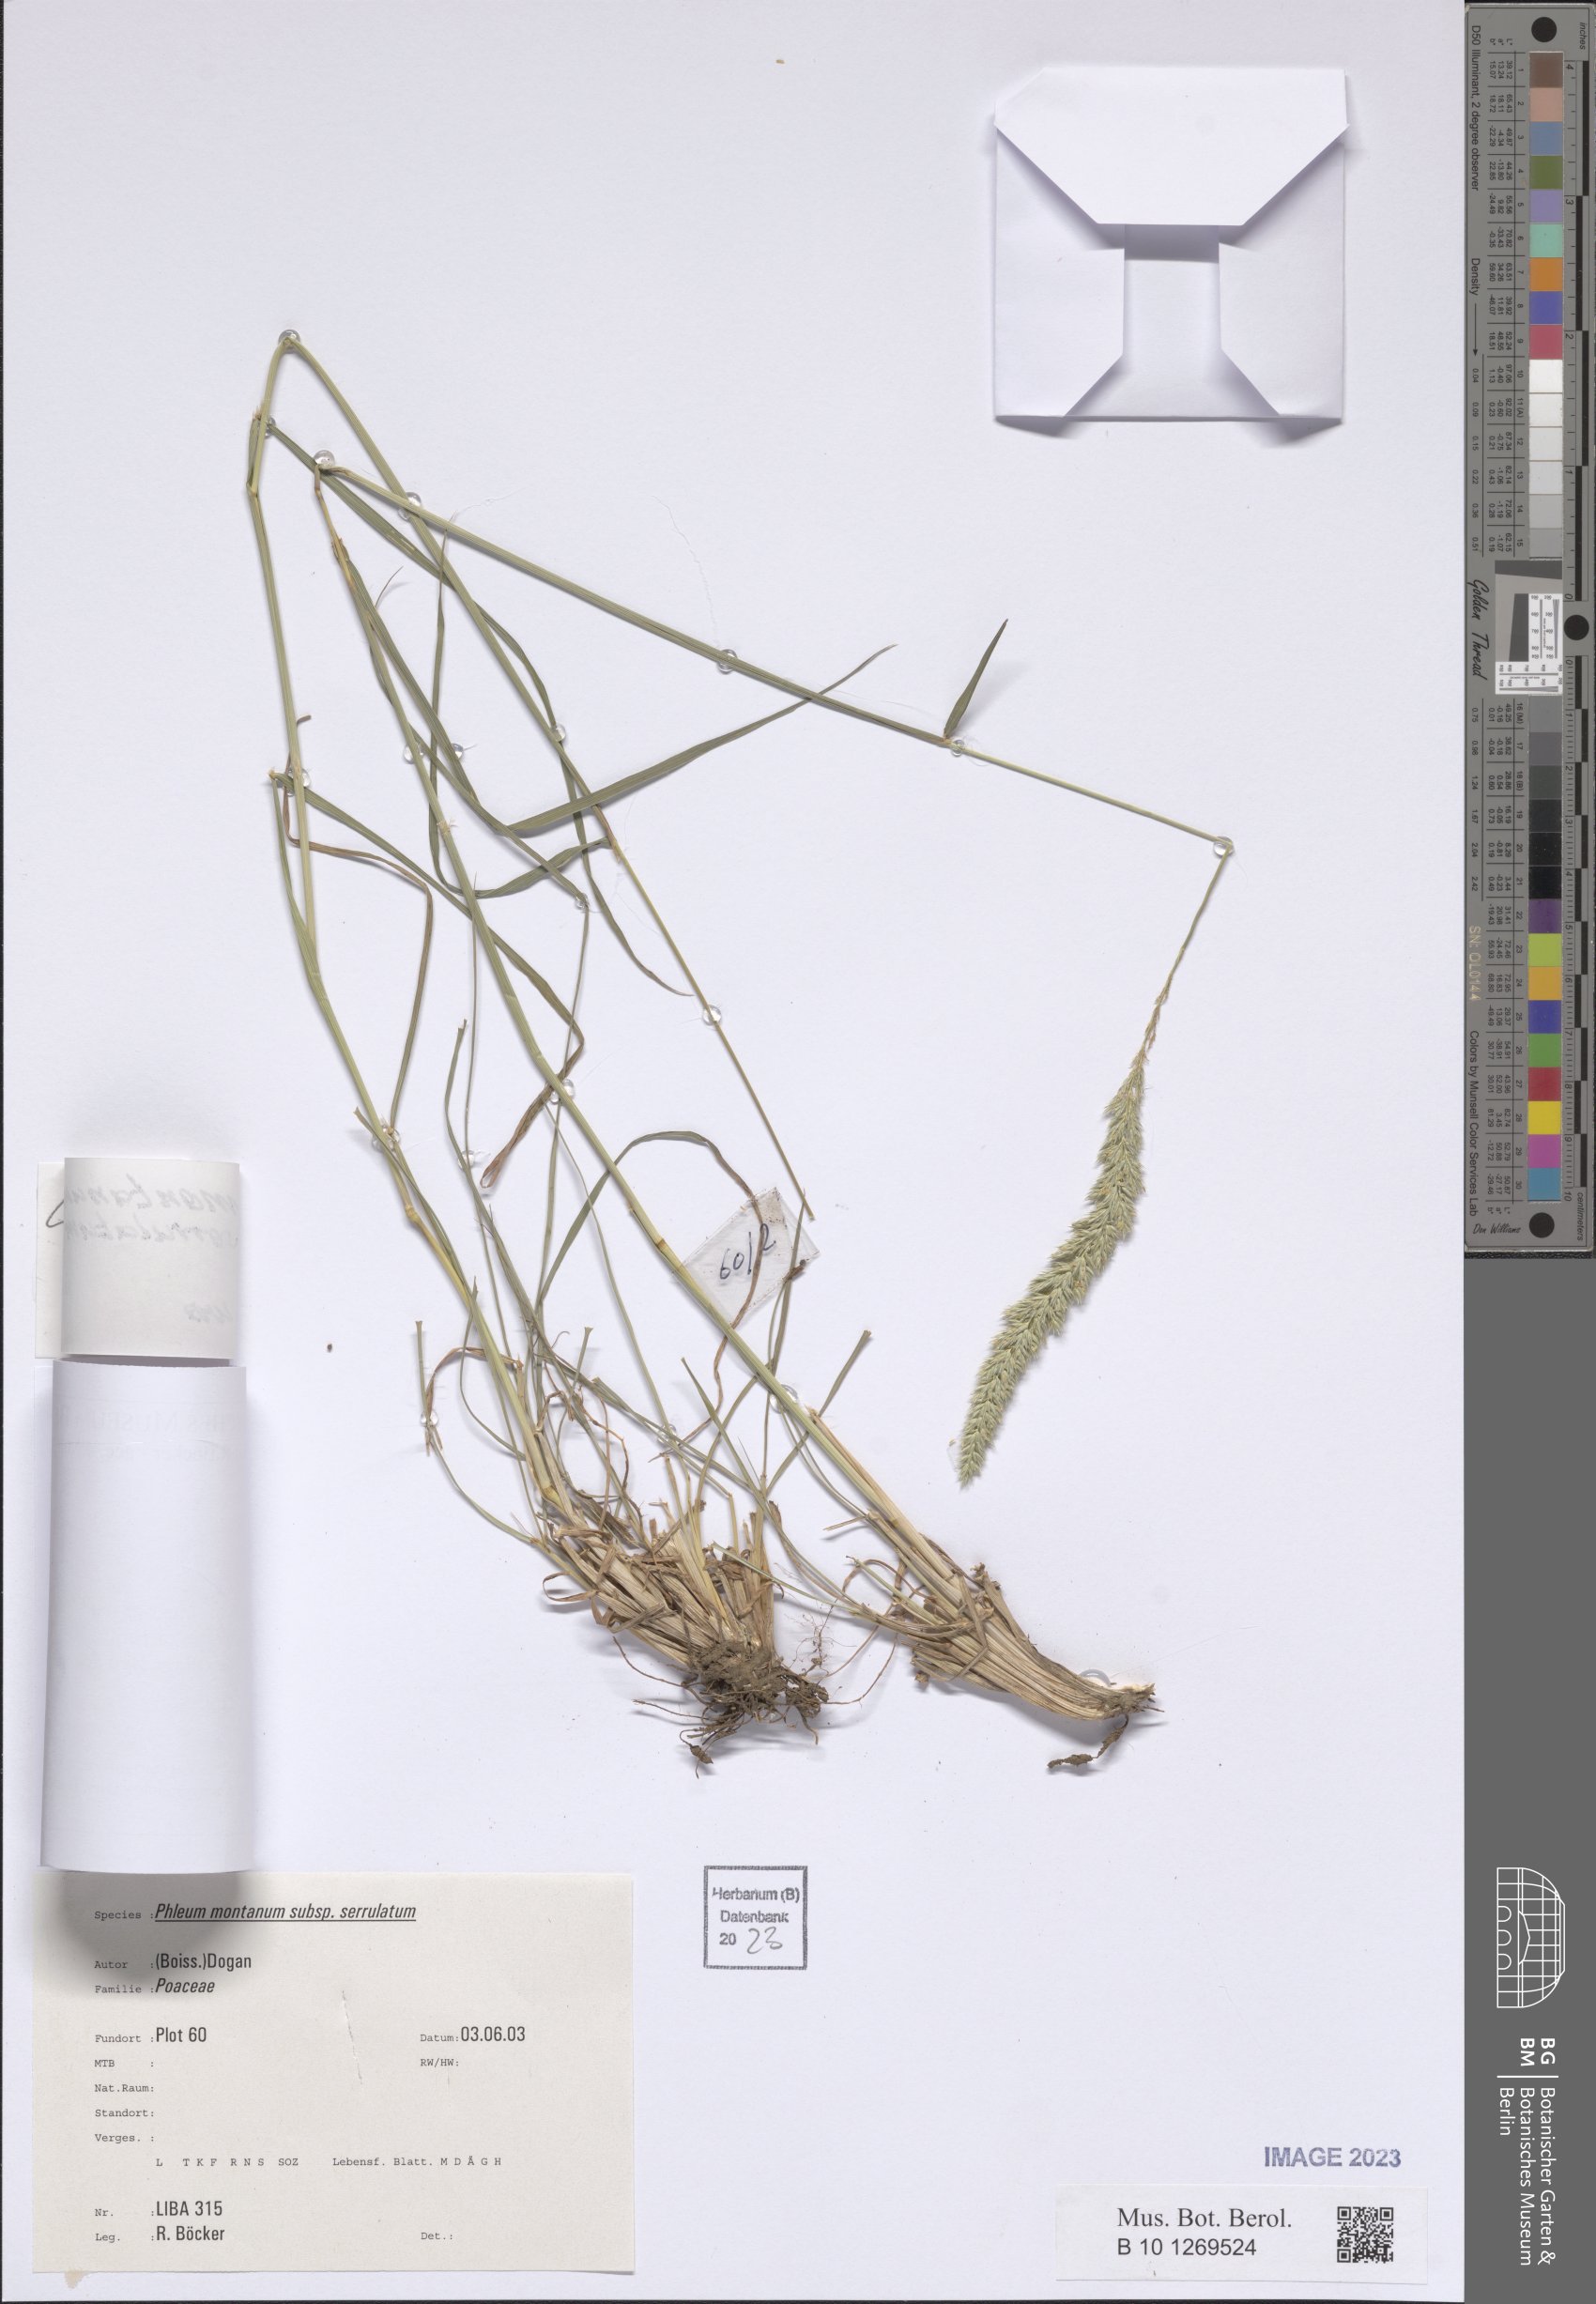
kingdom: Plantae
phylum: Tracheophyta
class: Liliopsida
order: Poales
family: Poaceae
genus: Phleum
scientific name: Phleum montanum
